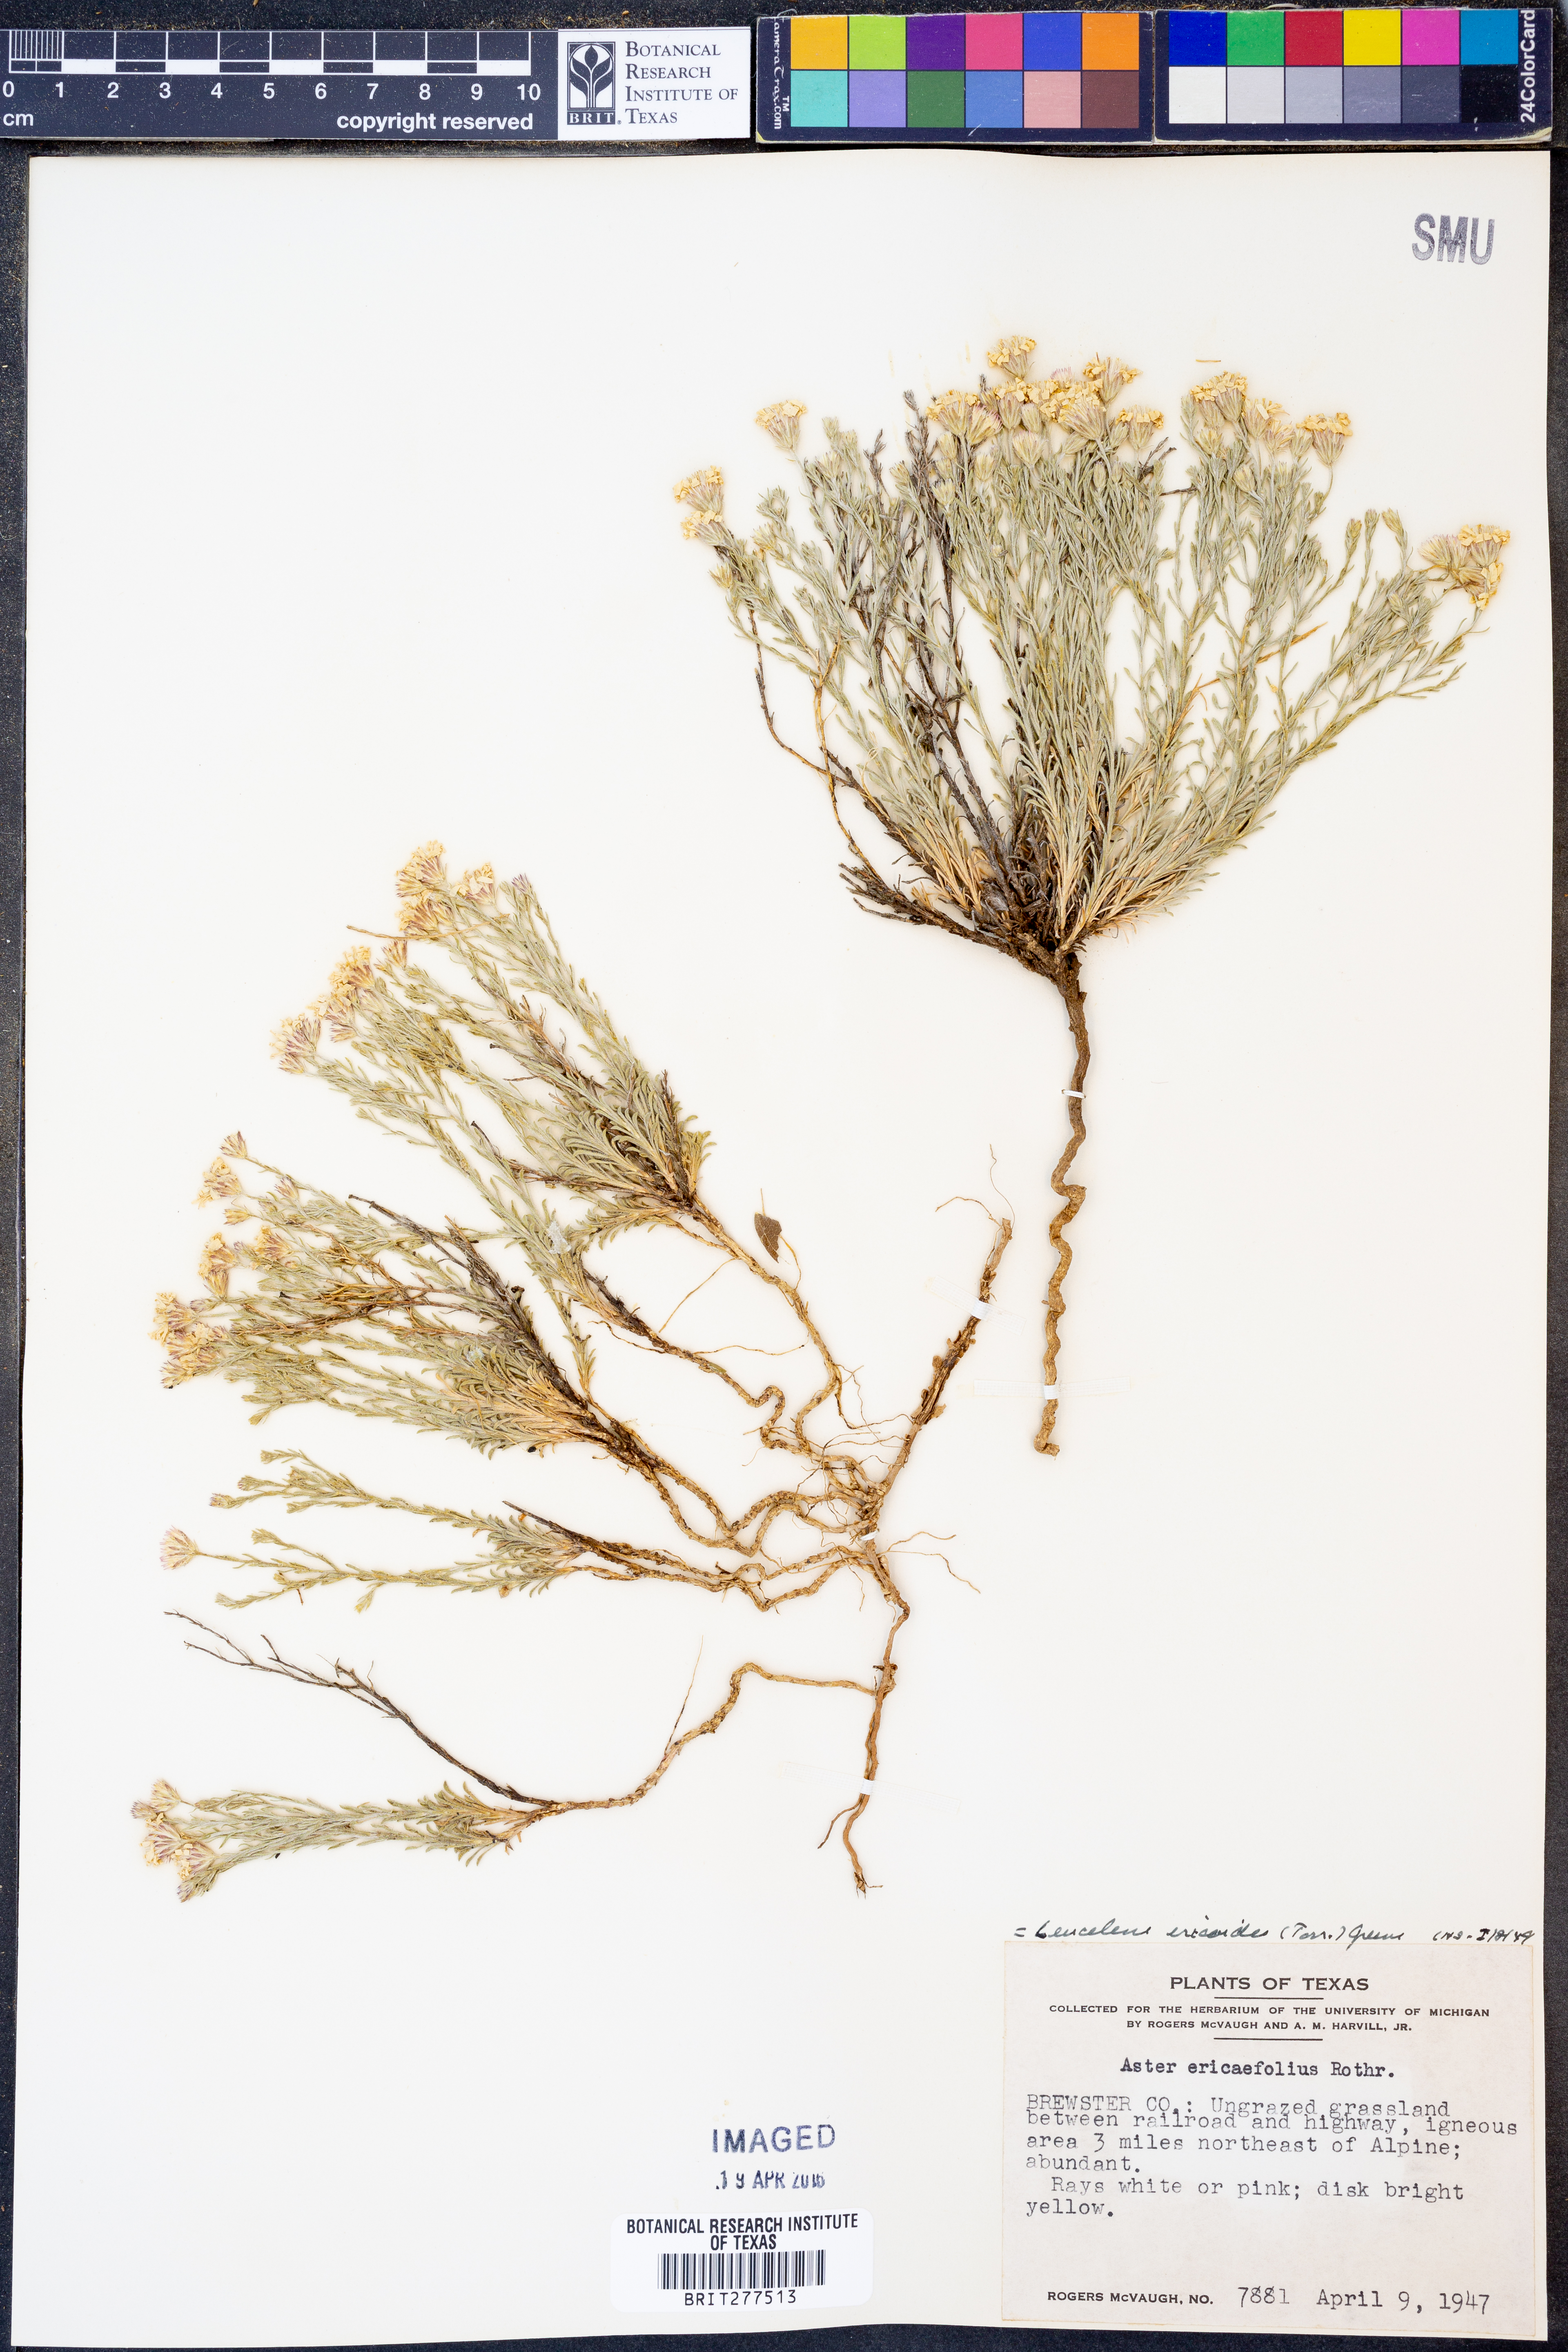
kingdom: Plantae
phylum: Tracheophyta
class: Magnoliopsida
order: Asterales
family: Asteraceae
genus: Chaetopappa
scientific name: Chaetopappa ericoides
